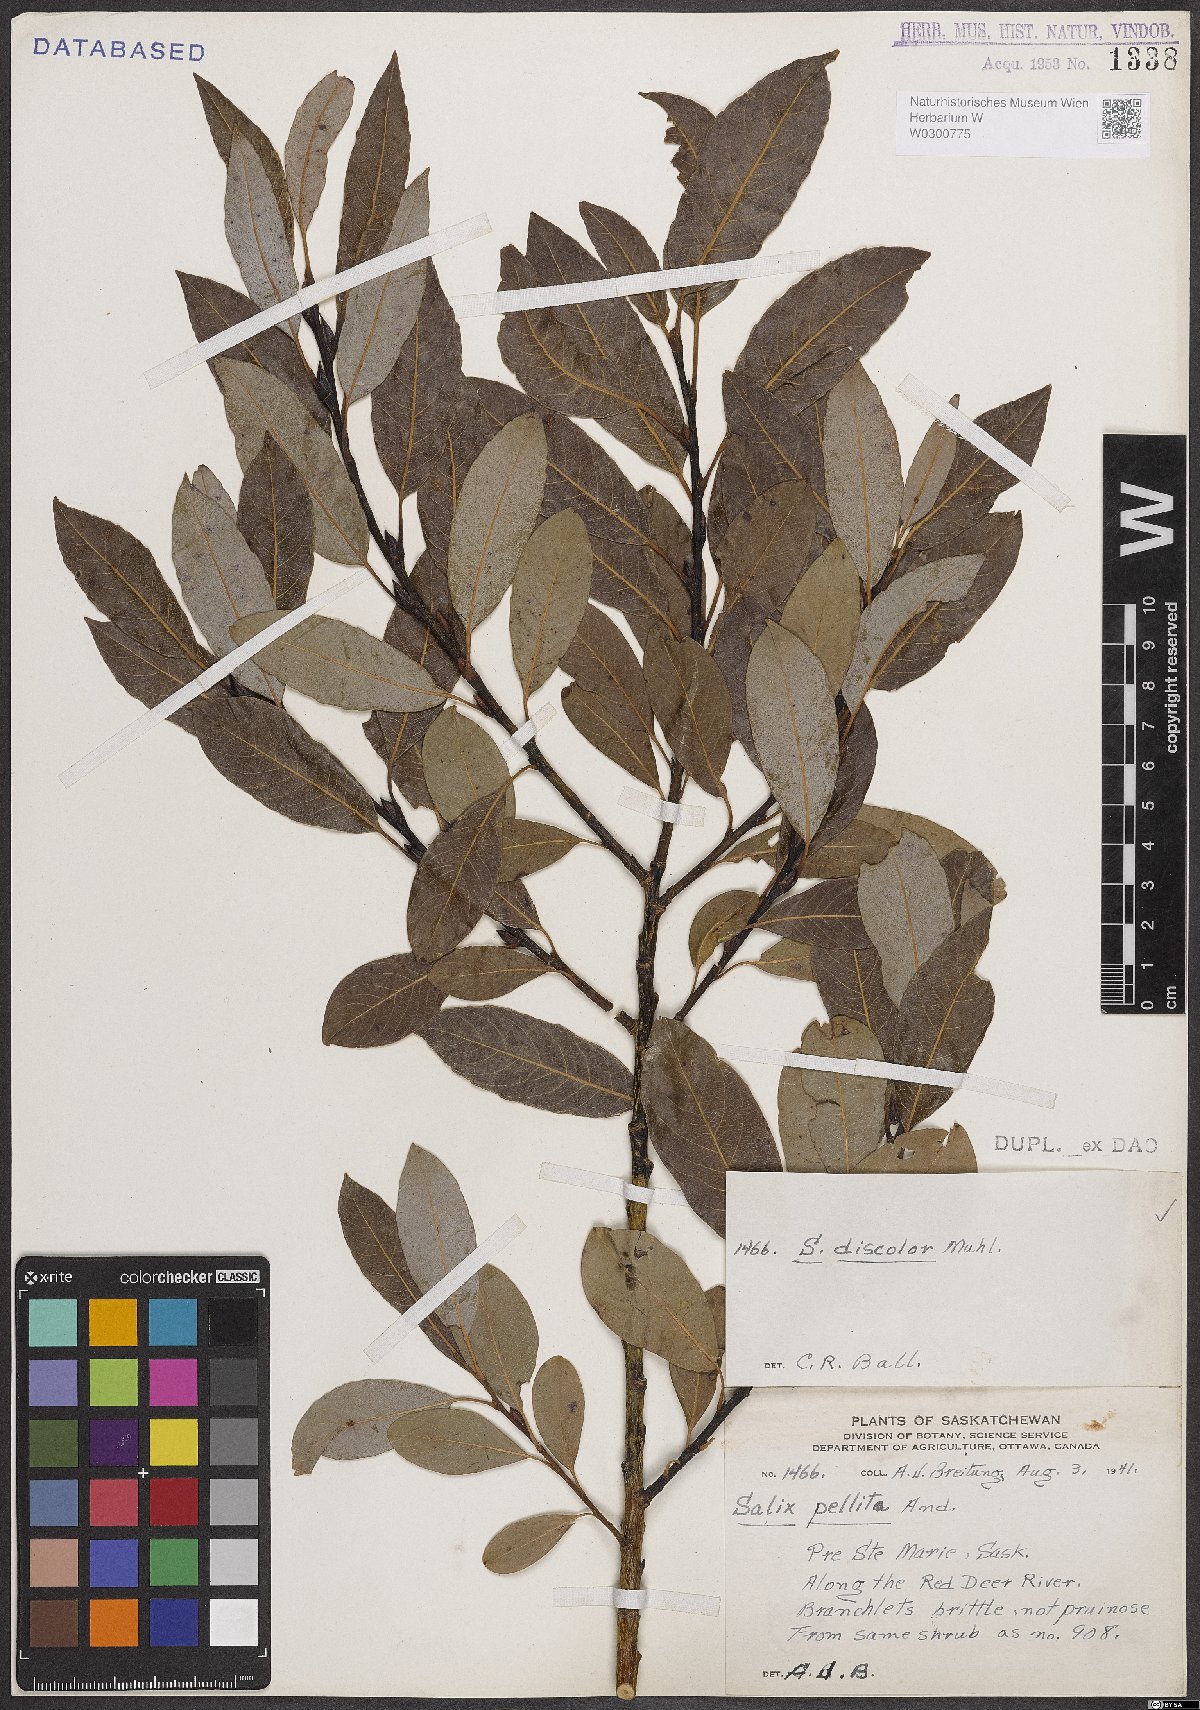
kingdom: Plantae
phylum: Tracheophyta
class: Magnoliopsida
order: Malpighiales
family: Salicaceae
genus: Salix
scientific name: Salix discolor
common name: Glaucous willow
